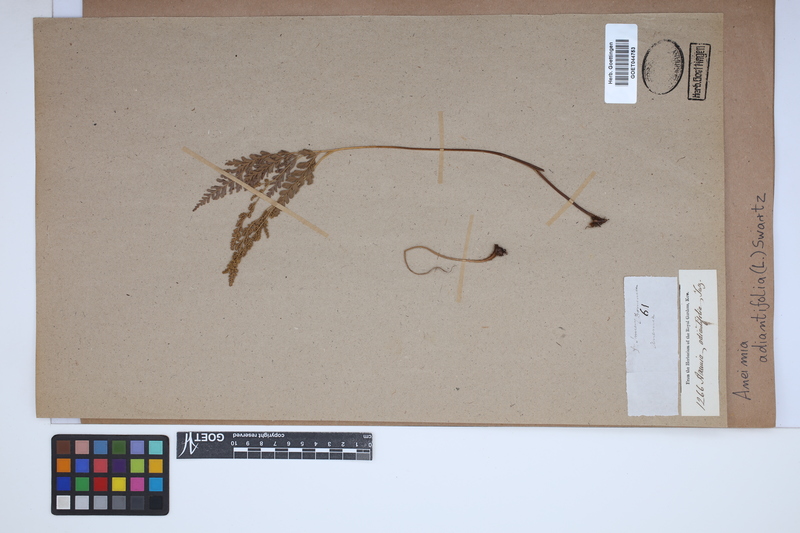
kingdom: Plantae
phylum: Tracheophyta
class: Polypodiopsida
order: Schizaeales
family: Anemiaceae
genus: Anemia
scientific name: Anemia adiantifolia
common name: Pine fern
